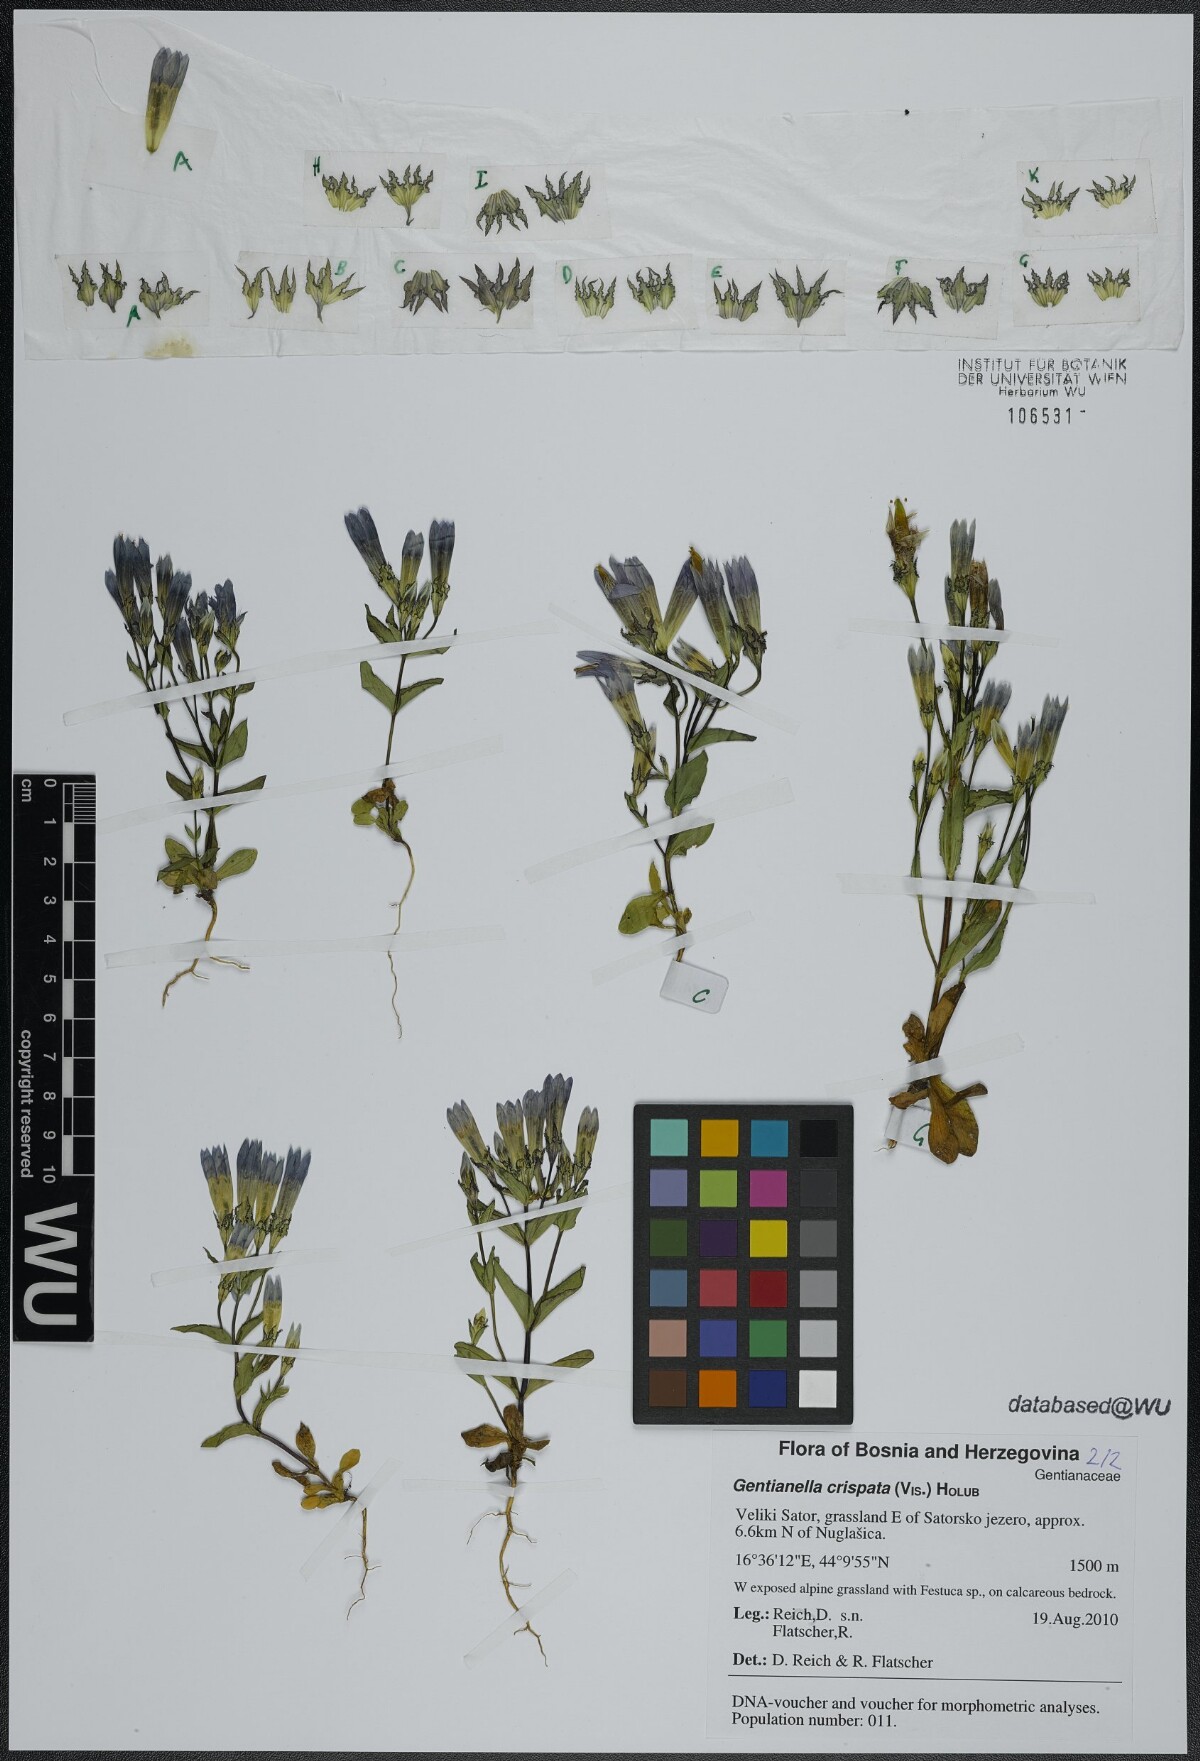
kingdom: Plantae
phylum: Tracheophyta
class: Magnoliopsida
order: Gentianales
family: Gentianaceae
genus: Gentianella
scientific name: Gentianella crispata
